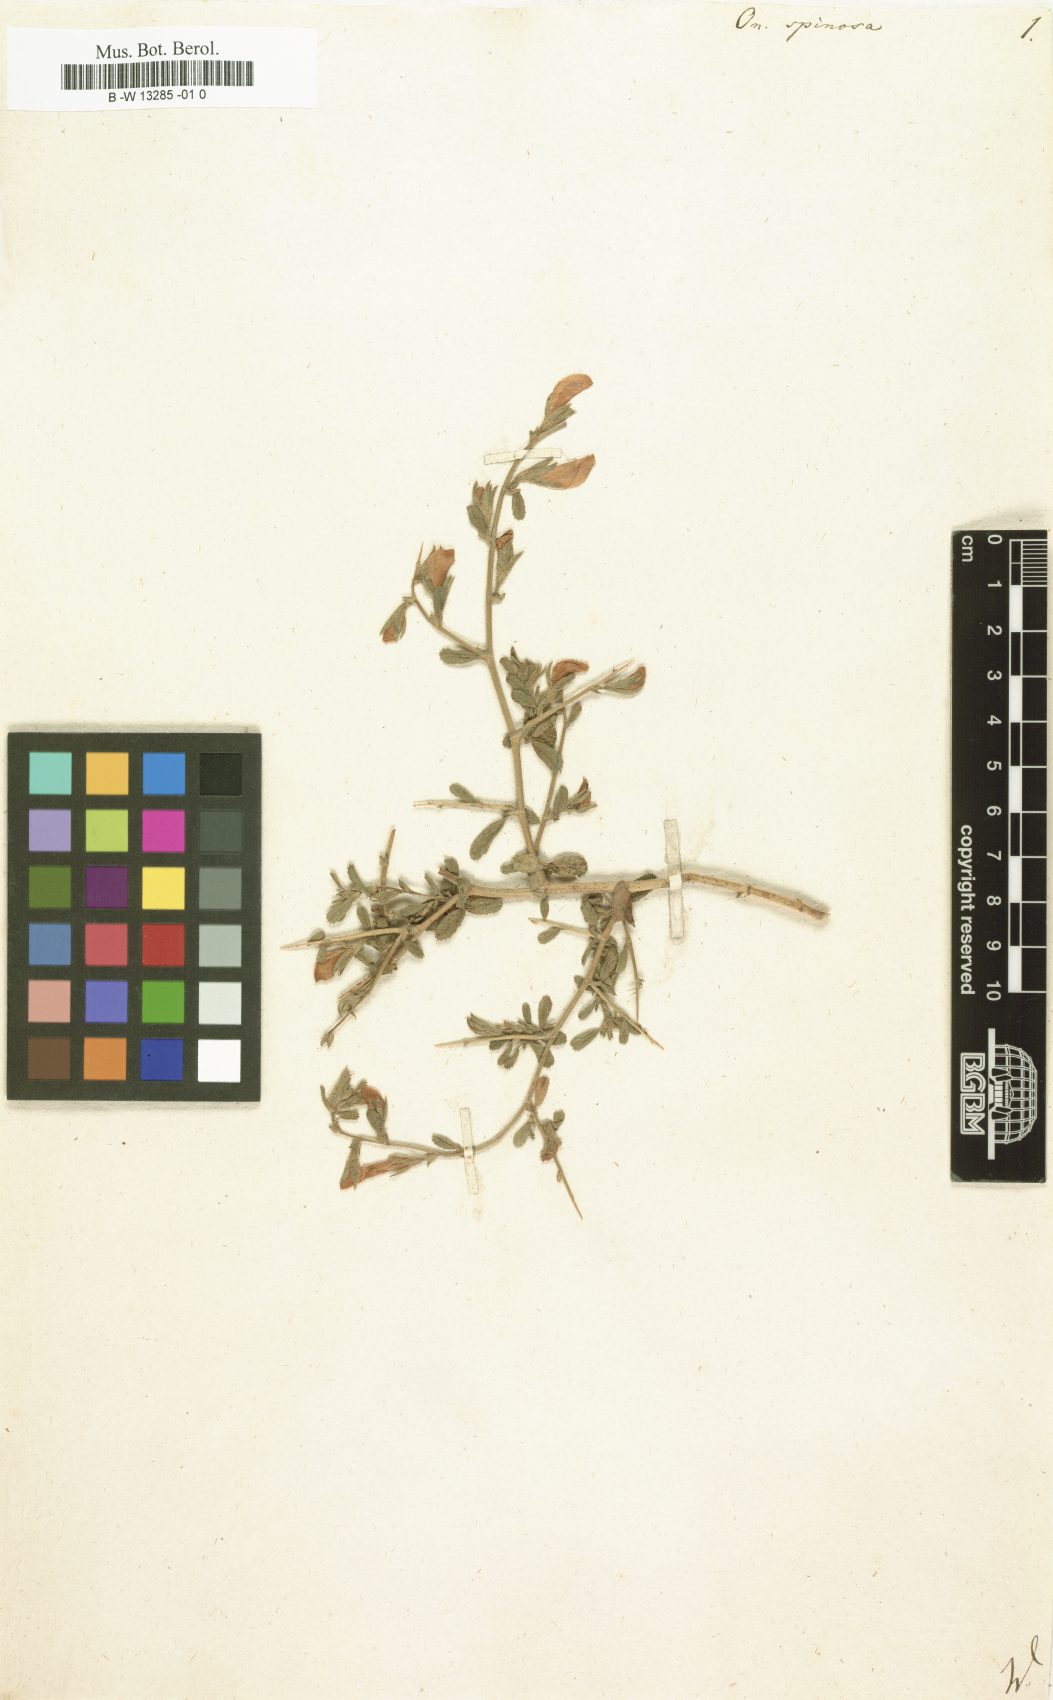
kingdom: Plantae
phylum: Tracheophyta
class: Magnoliopsida
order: Fabales
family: Fabaceae
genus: Ononis
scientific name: Ononis spinosa
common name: Spiny restharrow
